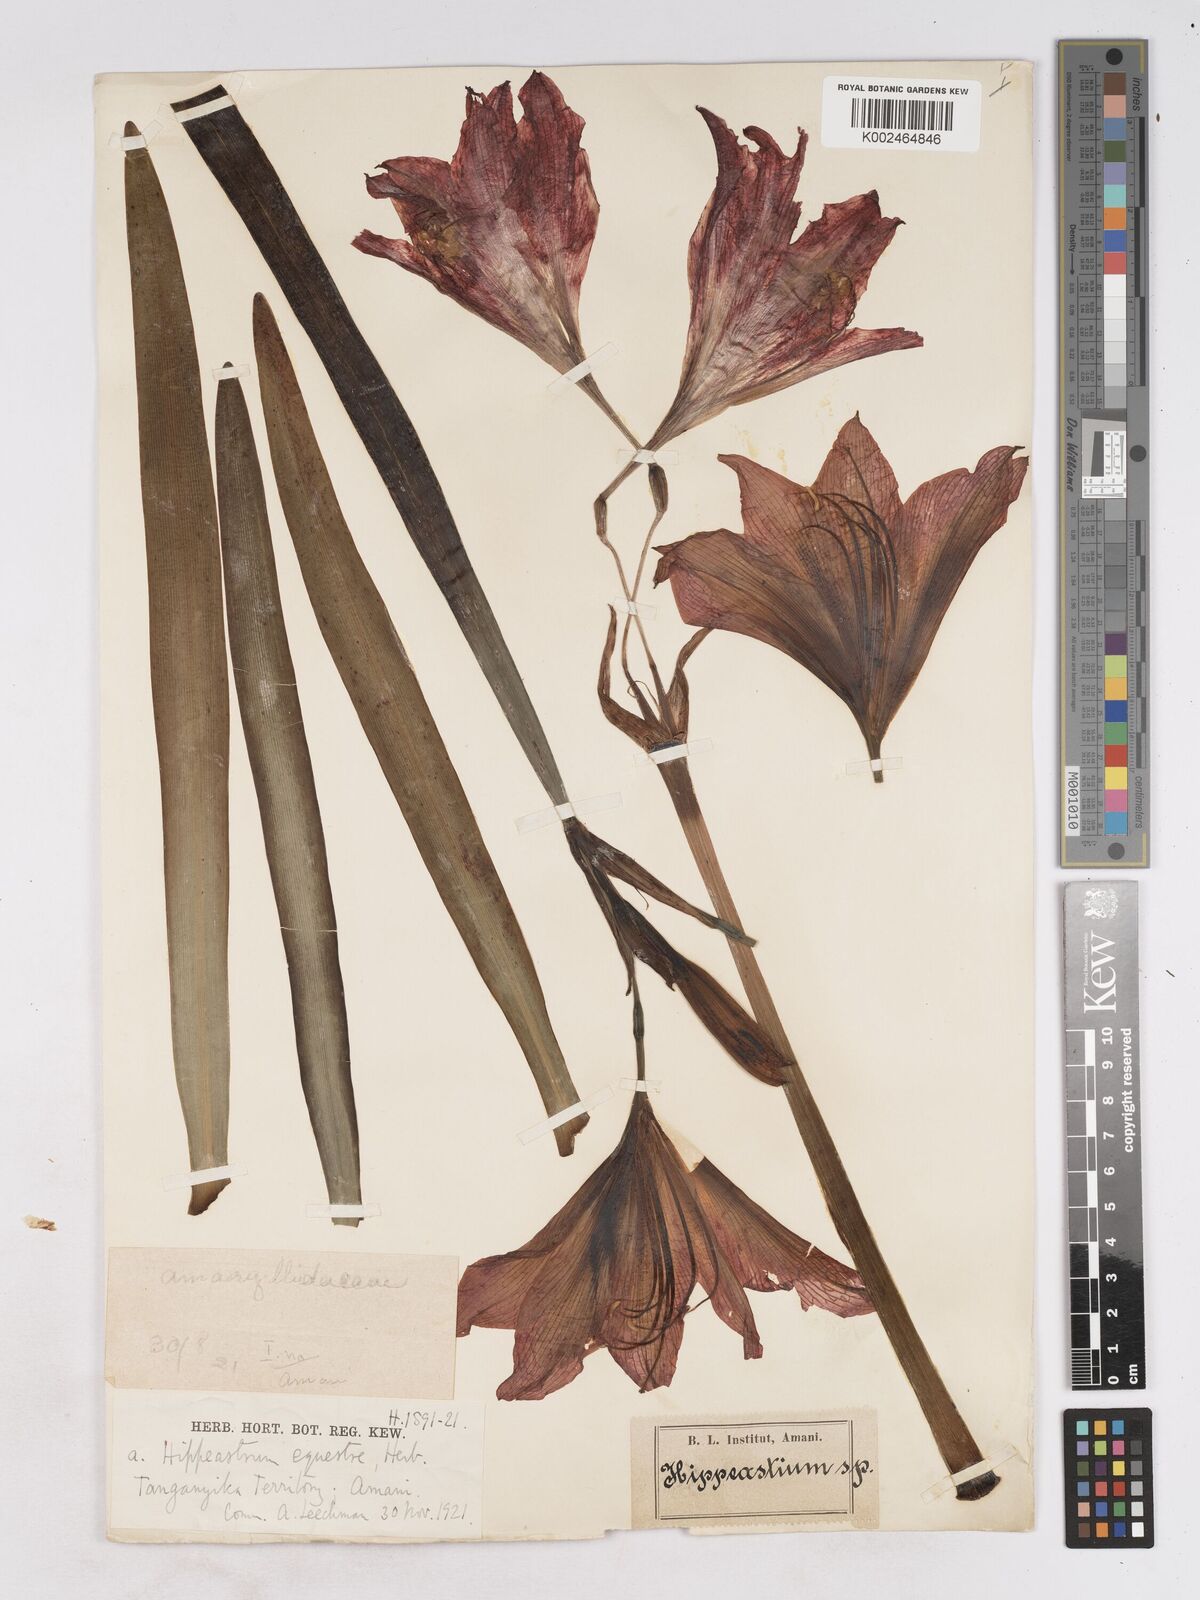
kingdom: Plantae
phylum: Tracheophyta
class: Liliopsida
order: Asparagales
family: Amaryllidaceae
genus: Hippeastrum
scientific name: Hippeastrum
